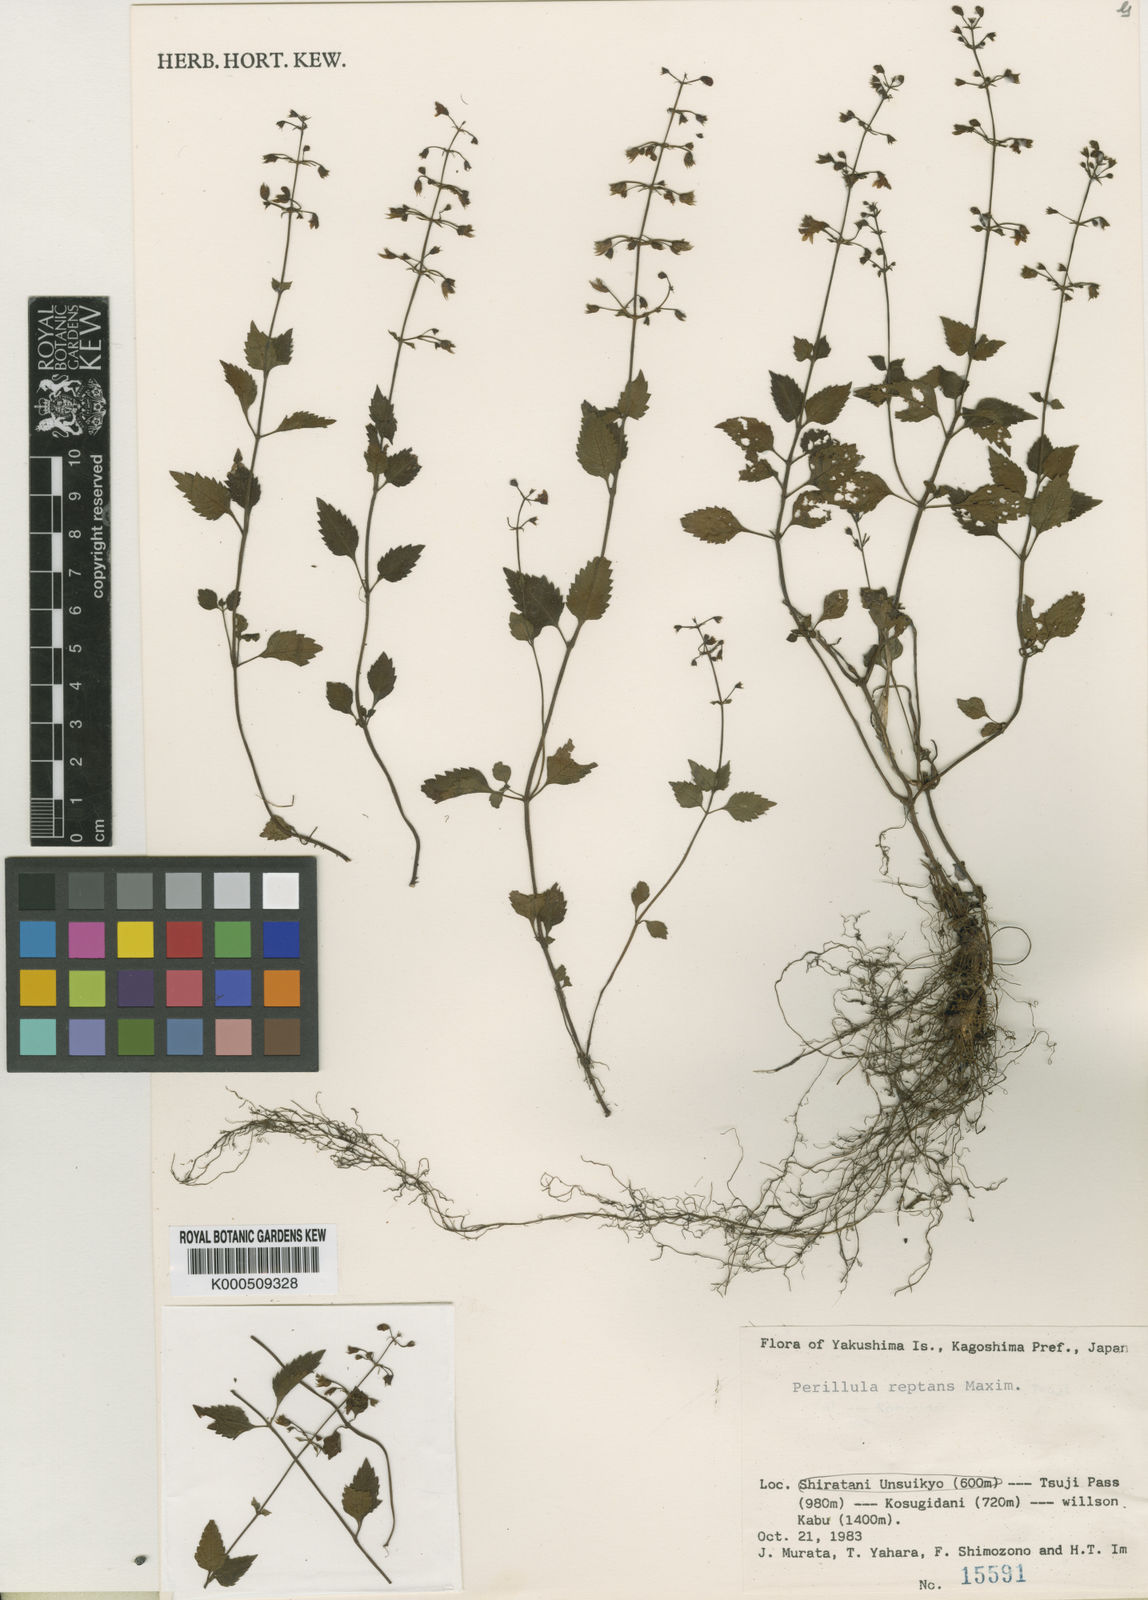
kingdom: Plantae
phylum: Tracheophyta
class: Magnoliopsida
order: Lamiales
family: Lamiaceae
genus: Perillula
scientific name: Perillula reptans
